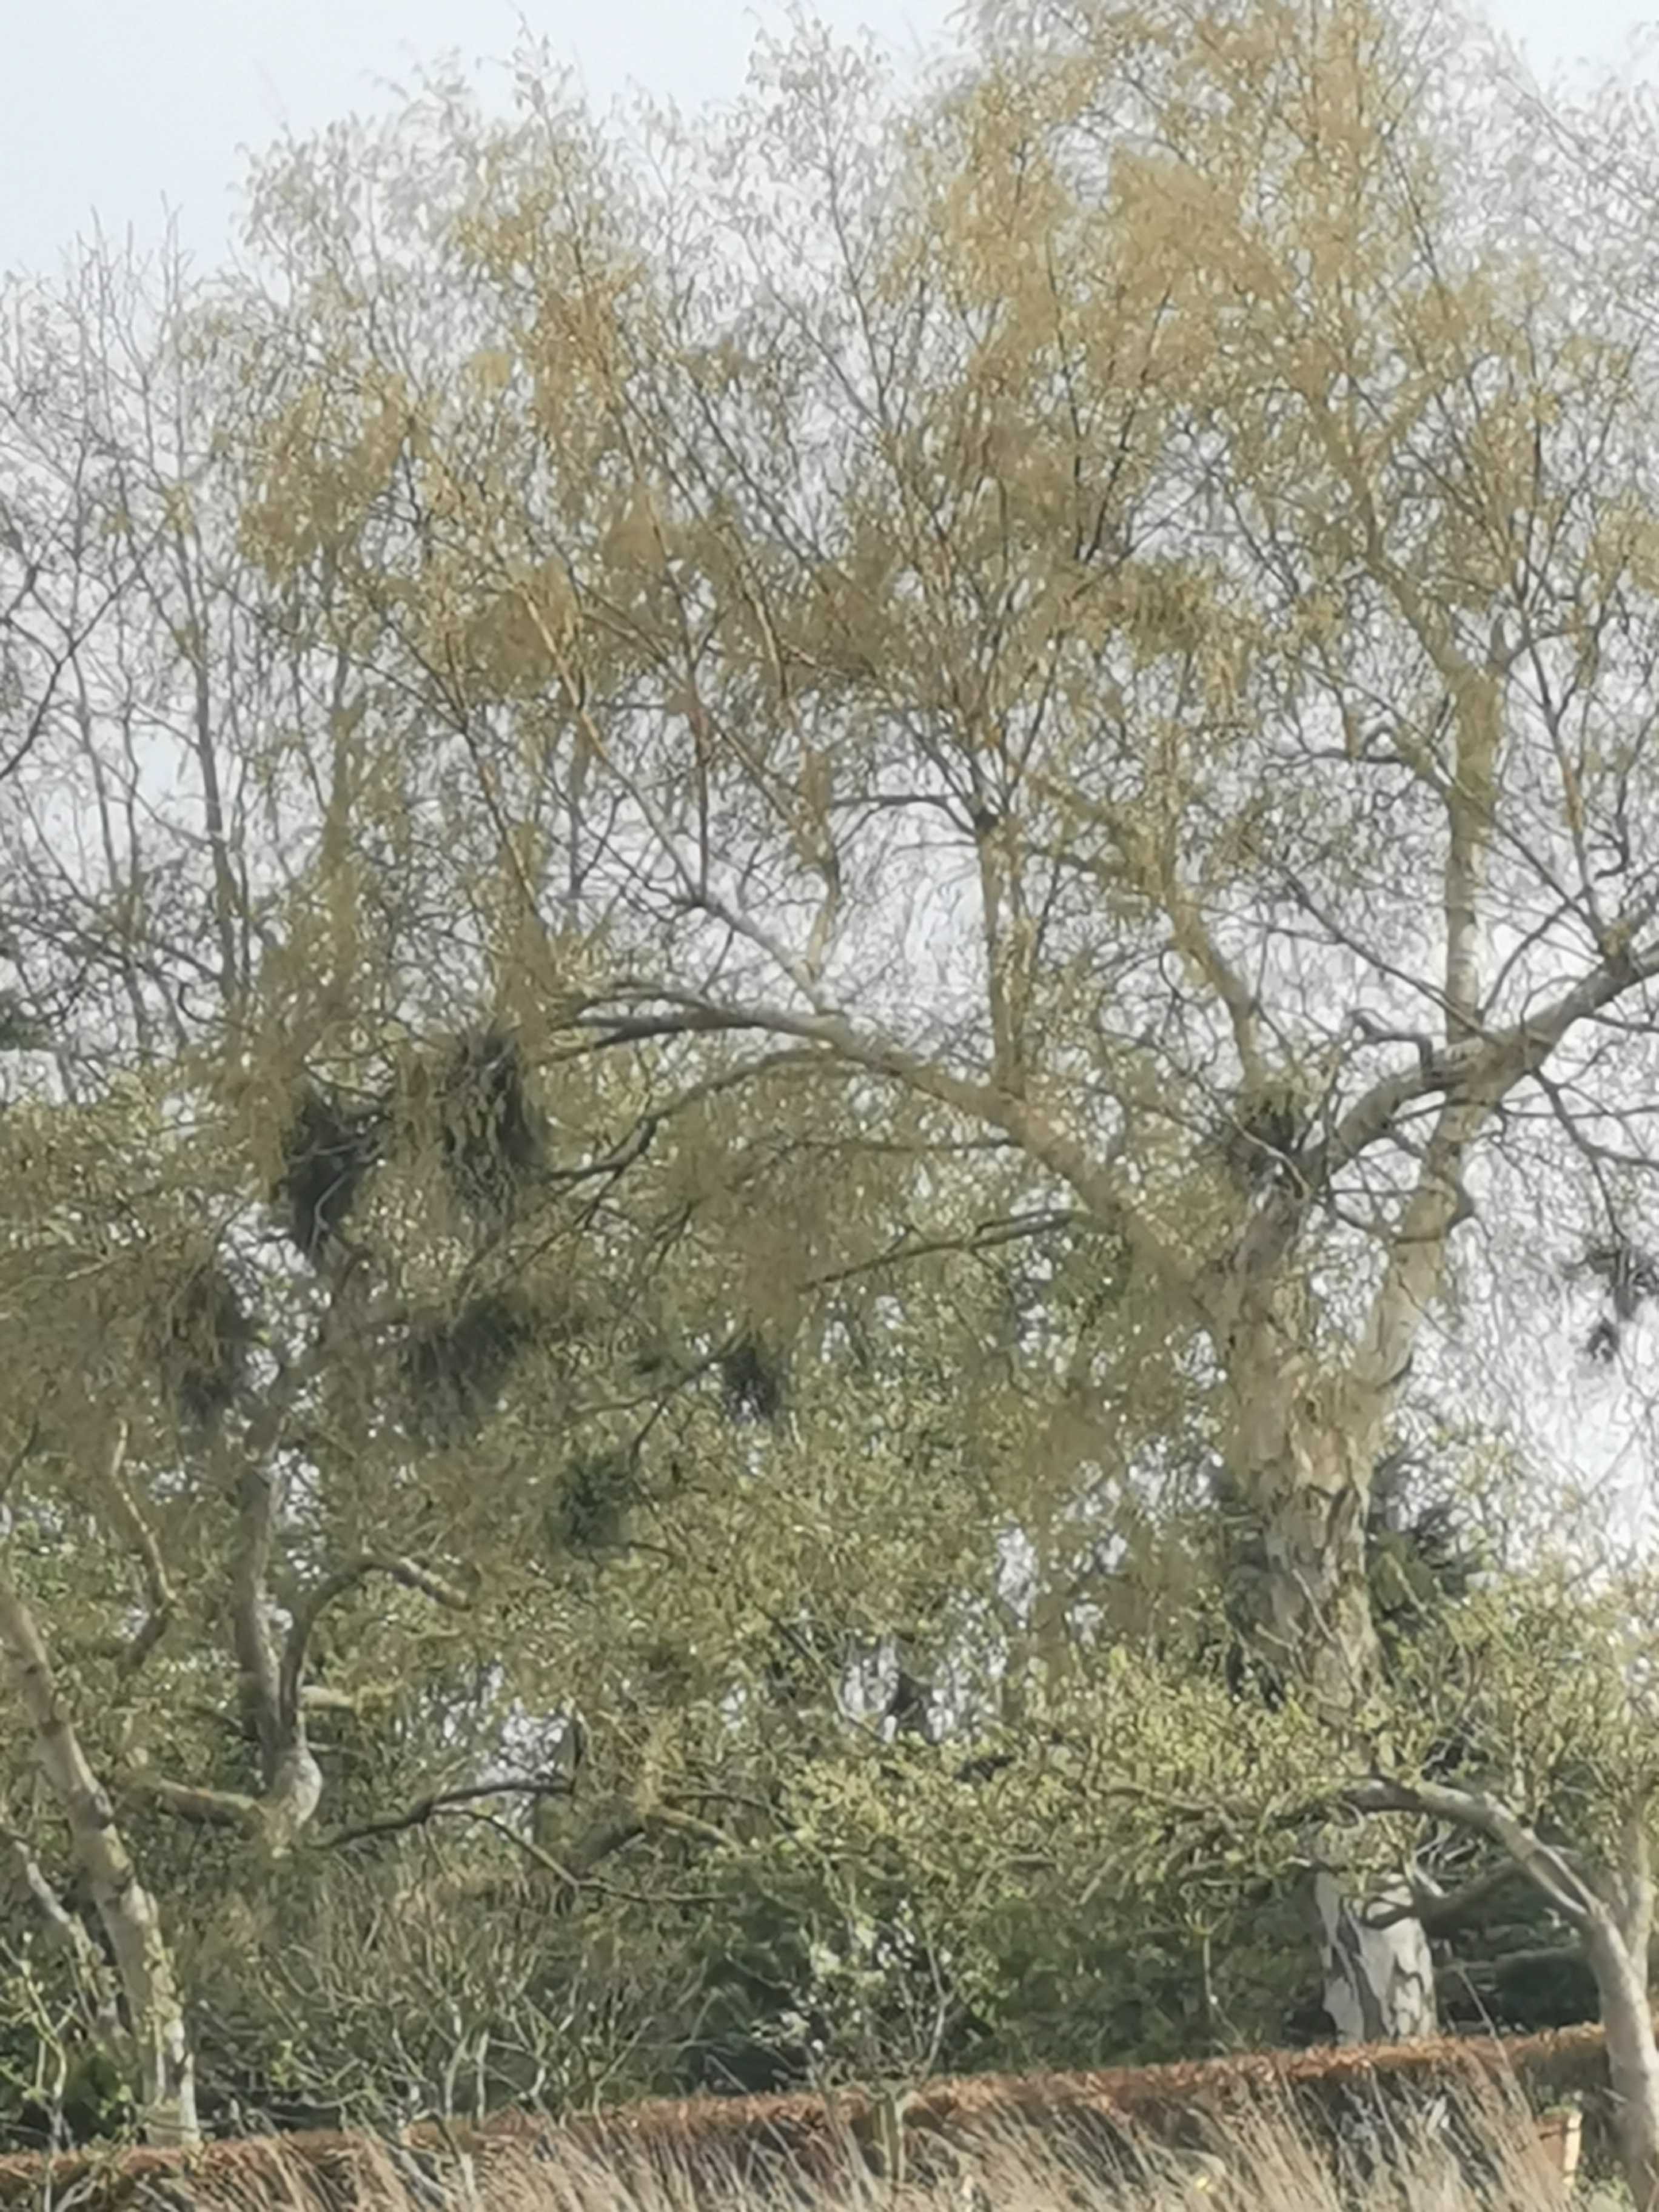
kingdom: Fungi
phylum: Ascomycota
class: Taphrinomycetes
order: Taphrinales
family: Taphrinaceae
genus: Taphrina
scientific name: Taphrina betulina
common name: hekse-sækdug
